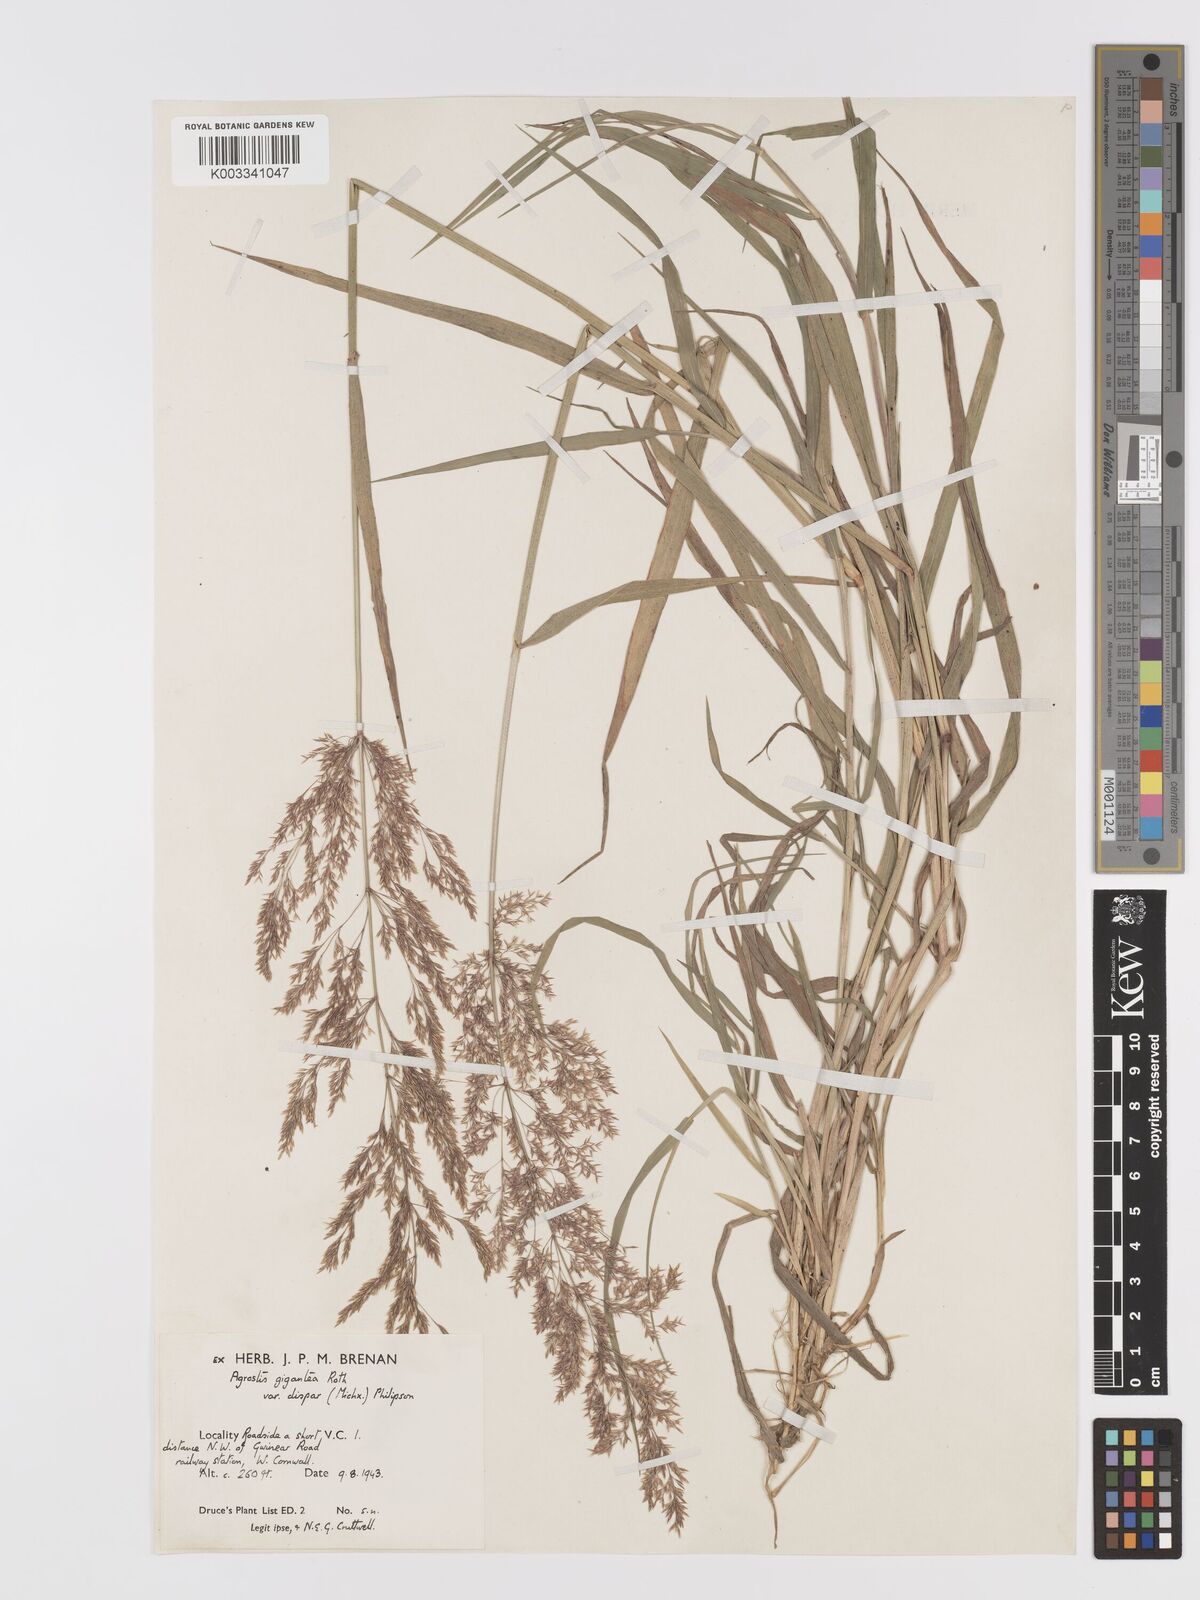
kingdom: Plantae
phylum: Tracheophyta
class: Liliopsida
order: Poales
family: Poaceae
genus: Agrostis
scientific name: Agrostis gigantea
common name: Black bent
